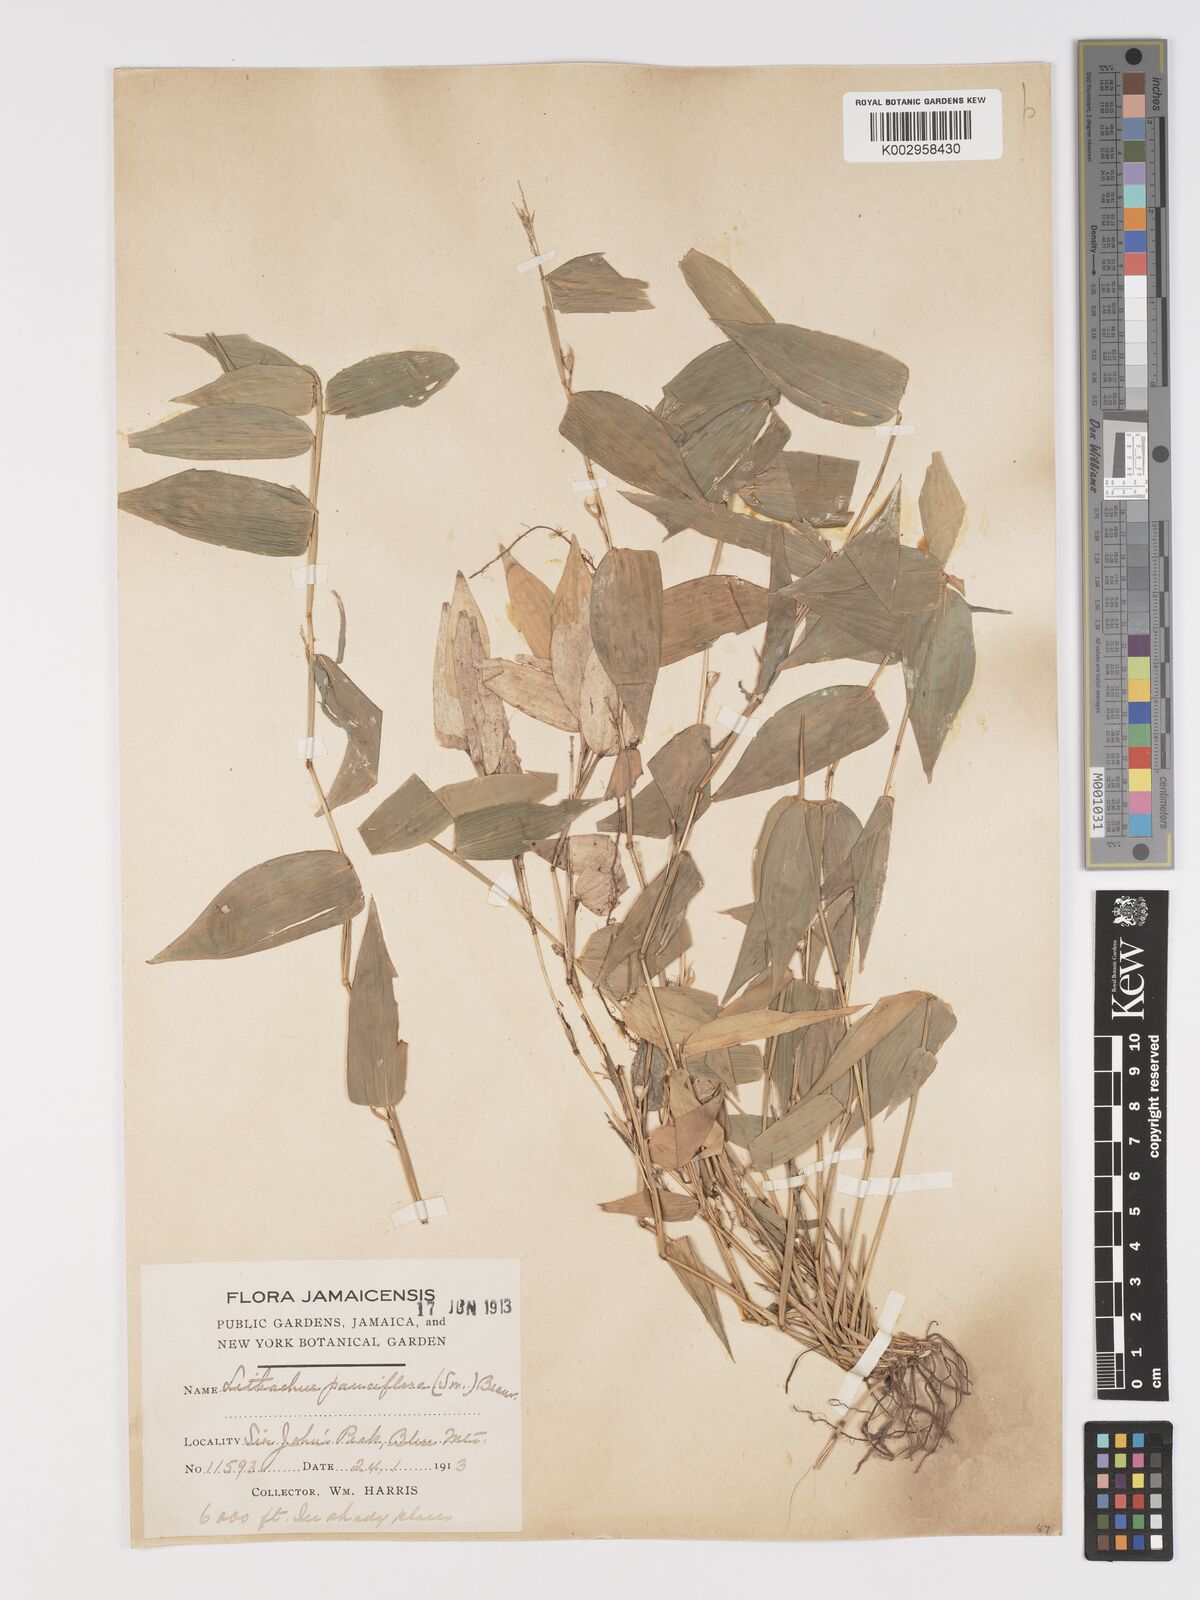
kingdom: Plantae
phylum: Tracheophyta
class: Liliopsida
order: Poales
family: Poaceae
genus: Lithachne
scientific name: Lithachne pauciflora
